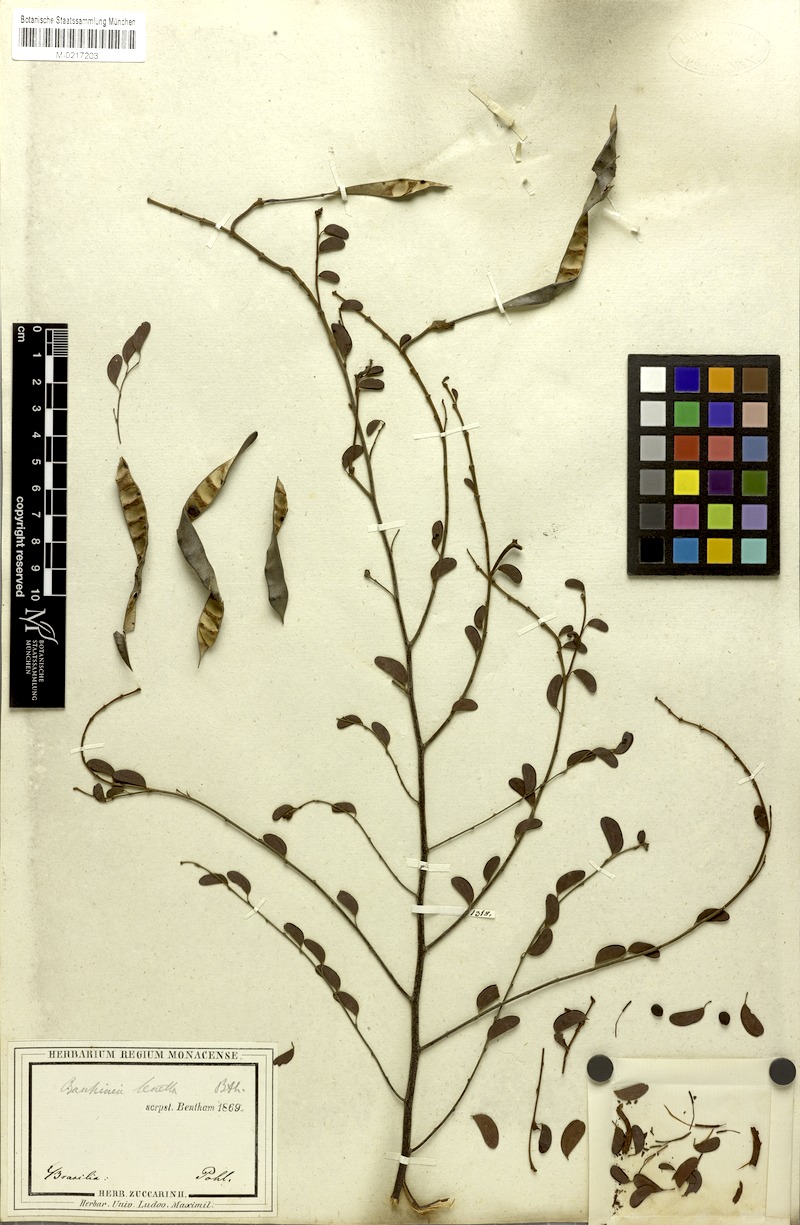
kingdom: Plantae
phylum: Tracheophyta
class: Magnoliopsida
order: Fabales
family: Fabaceae
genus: Bauhinia
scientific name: Bauhinia tenella
